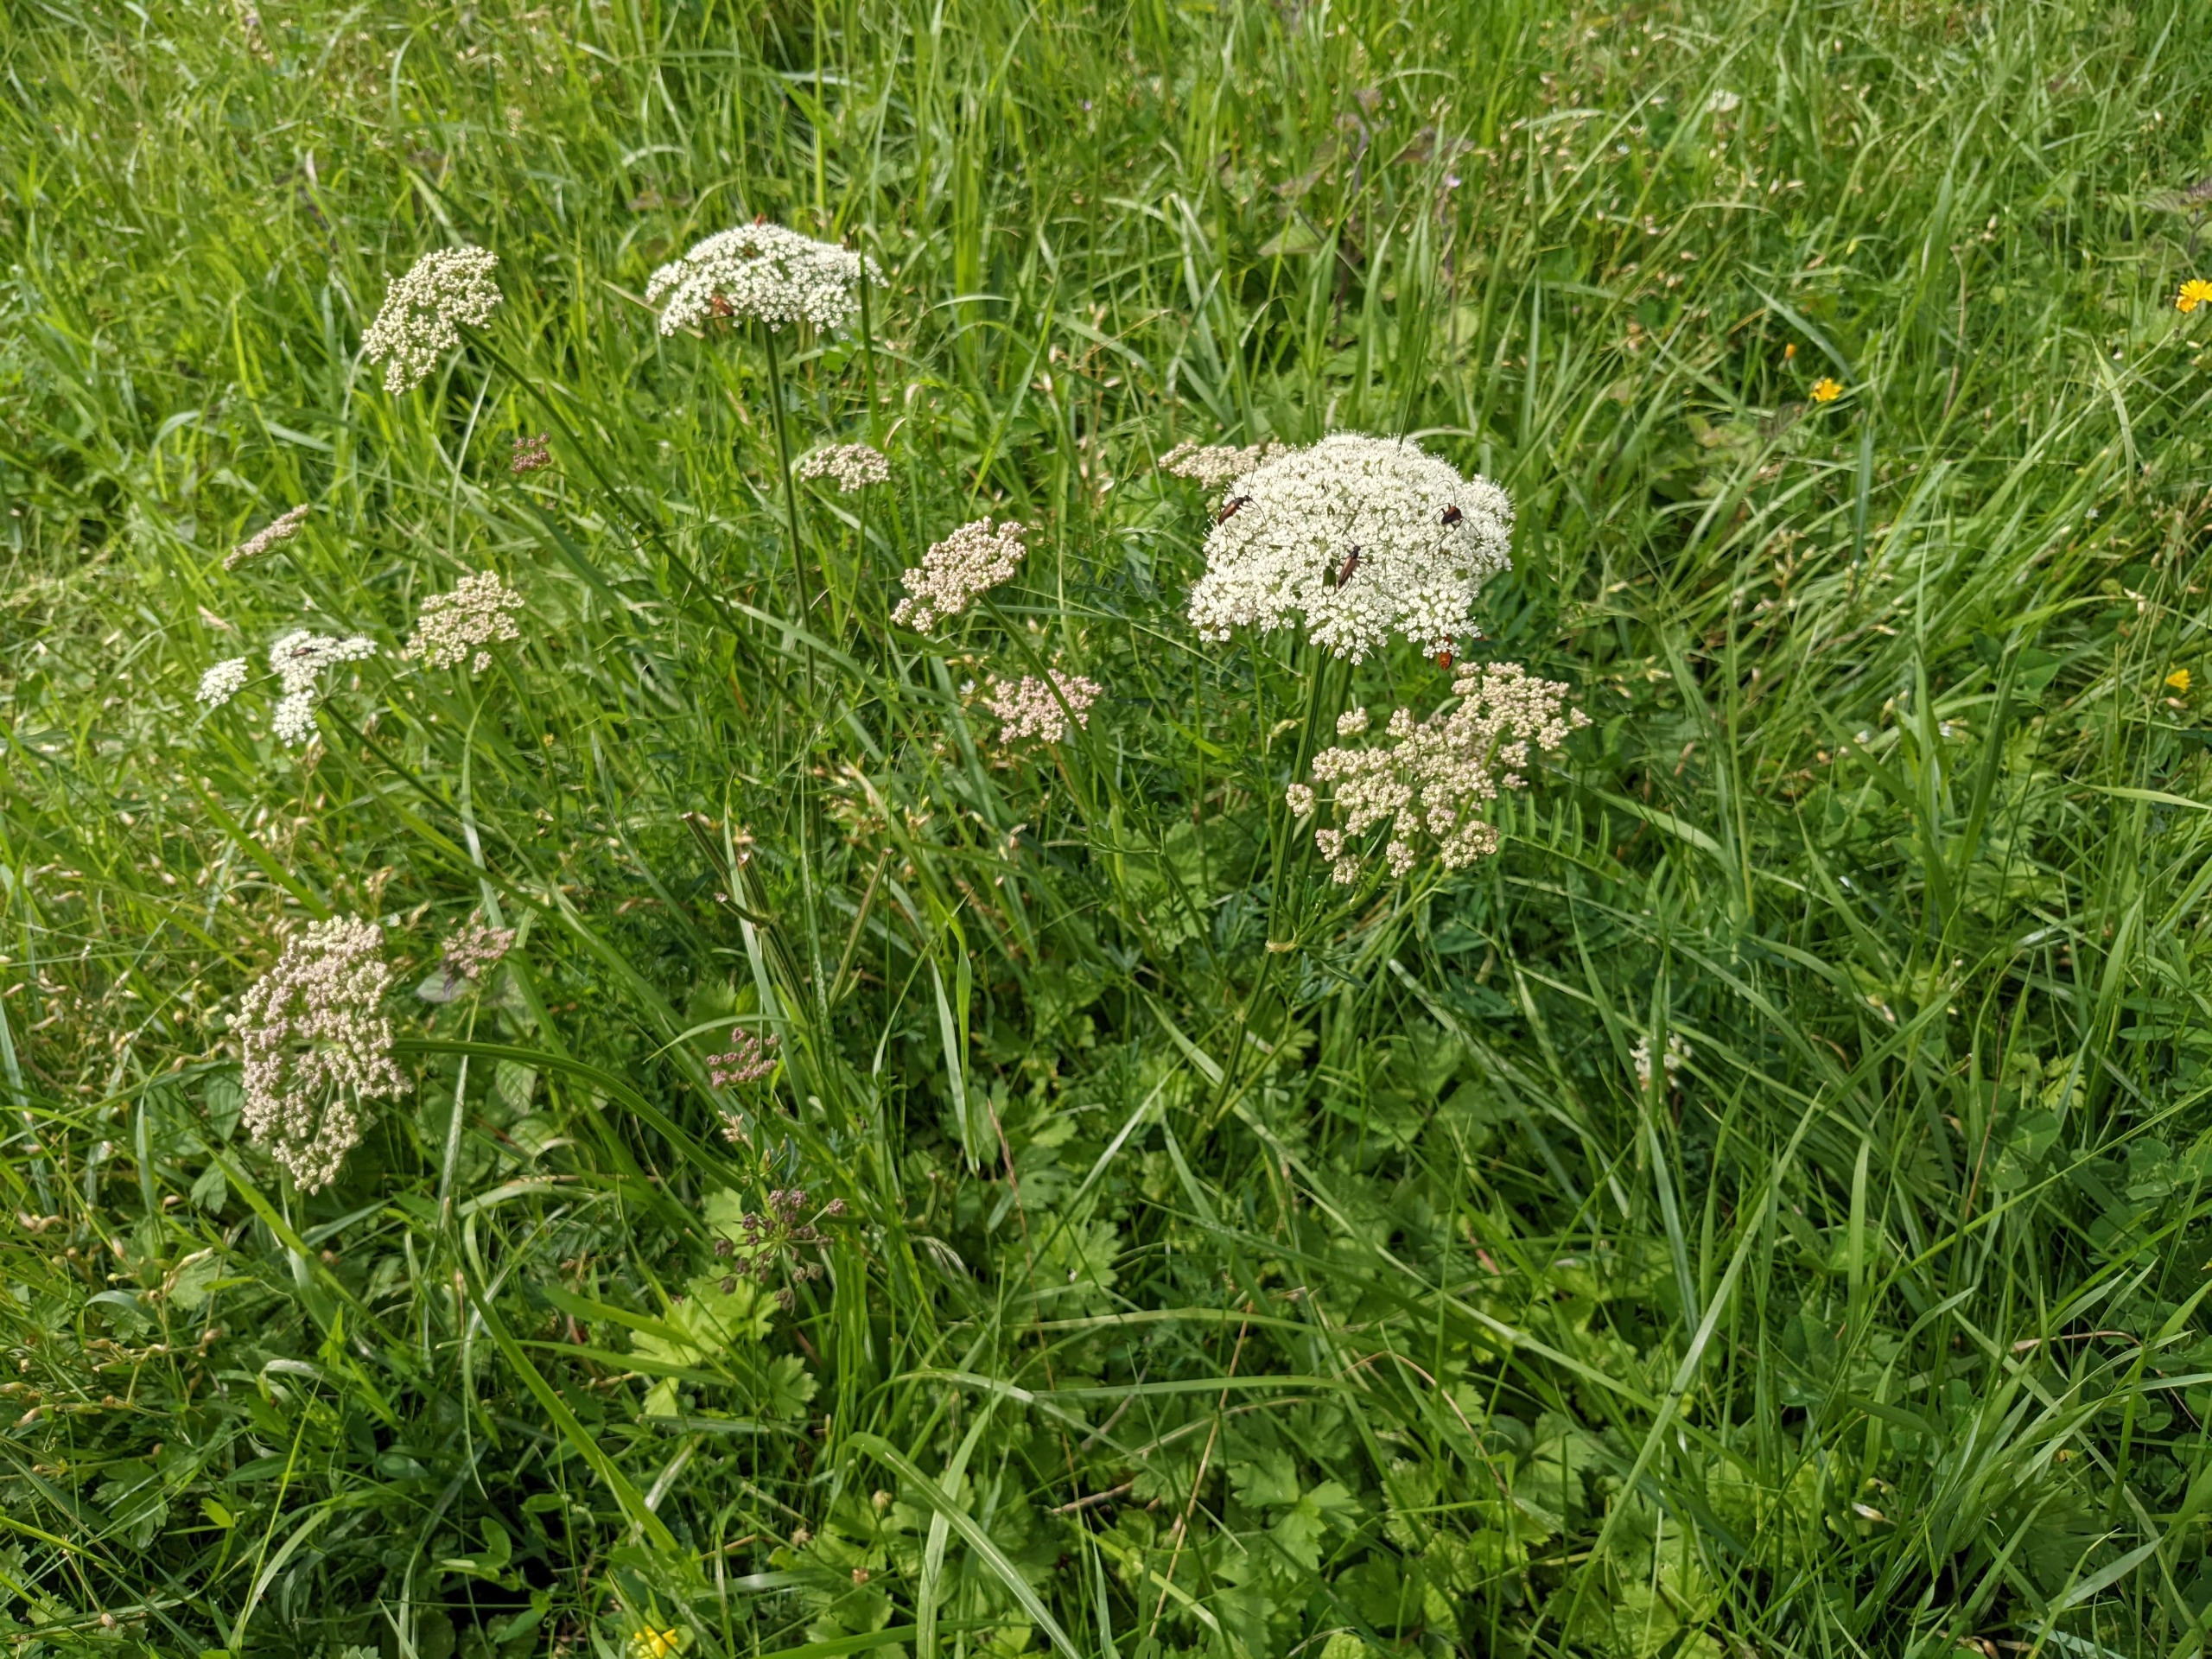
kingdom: Plantae
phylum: Tracheophyta
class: Magnoliopsida
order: Apiales
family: Apiaceae
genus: Selinum
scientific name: Selinum carvifolia
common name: Seline
